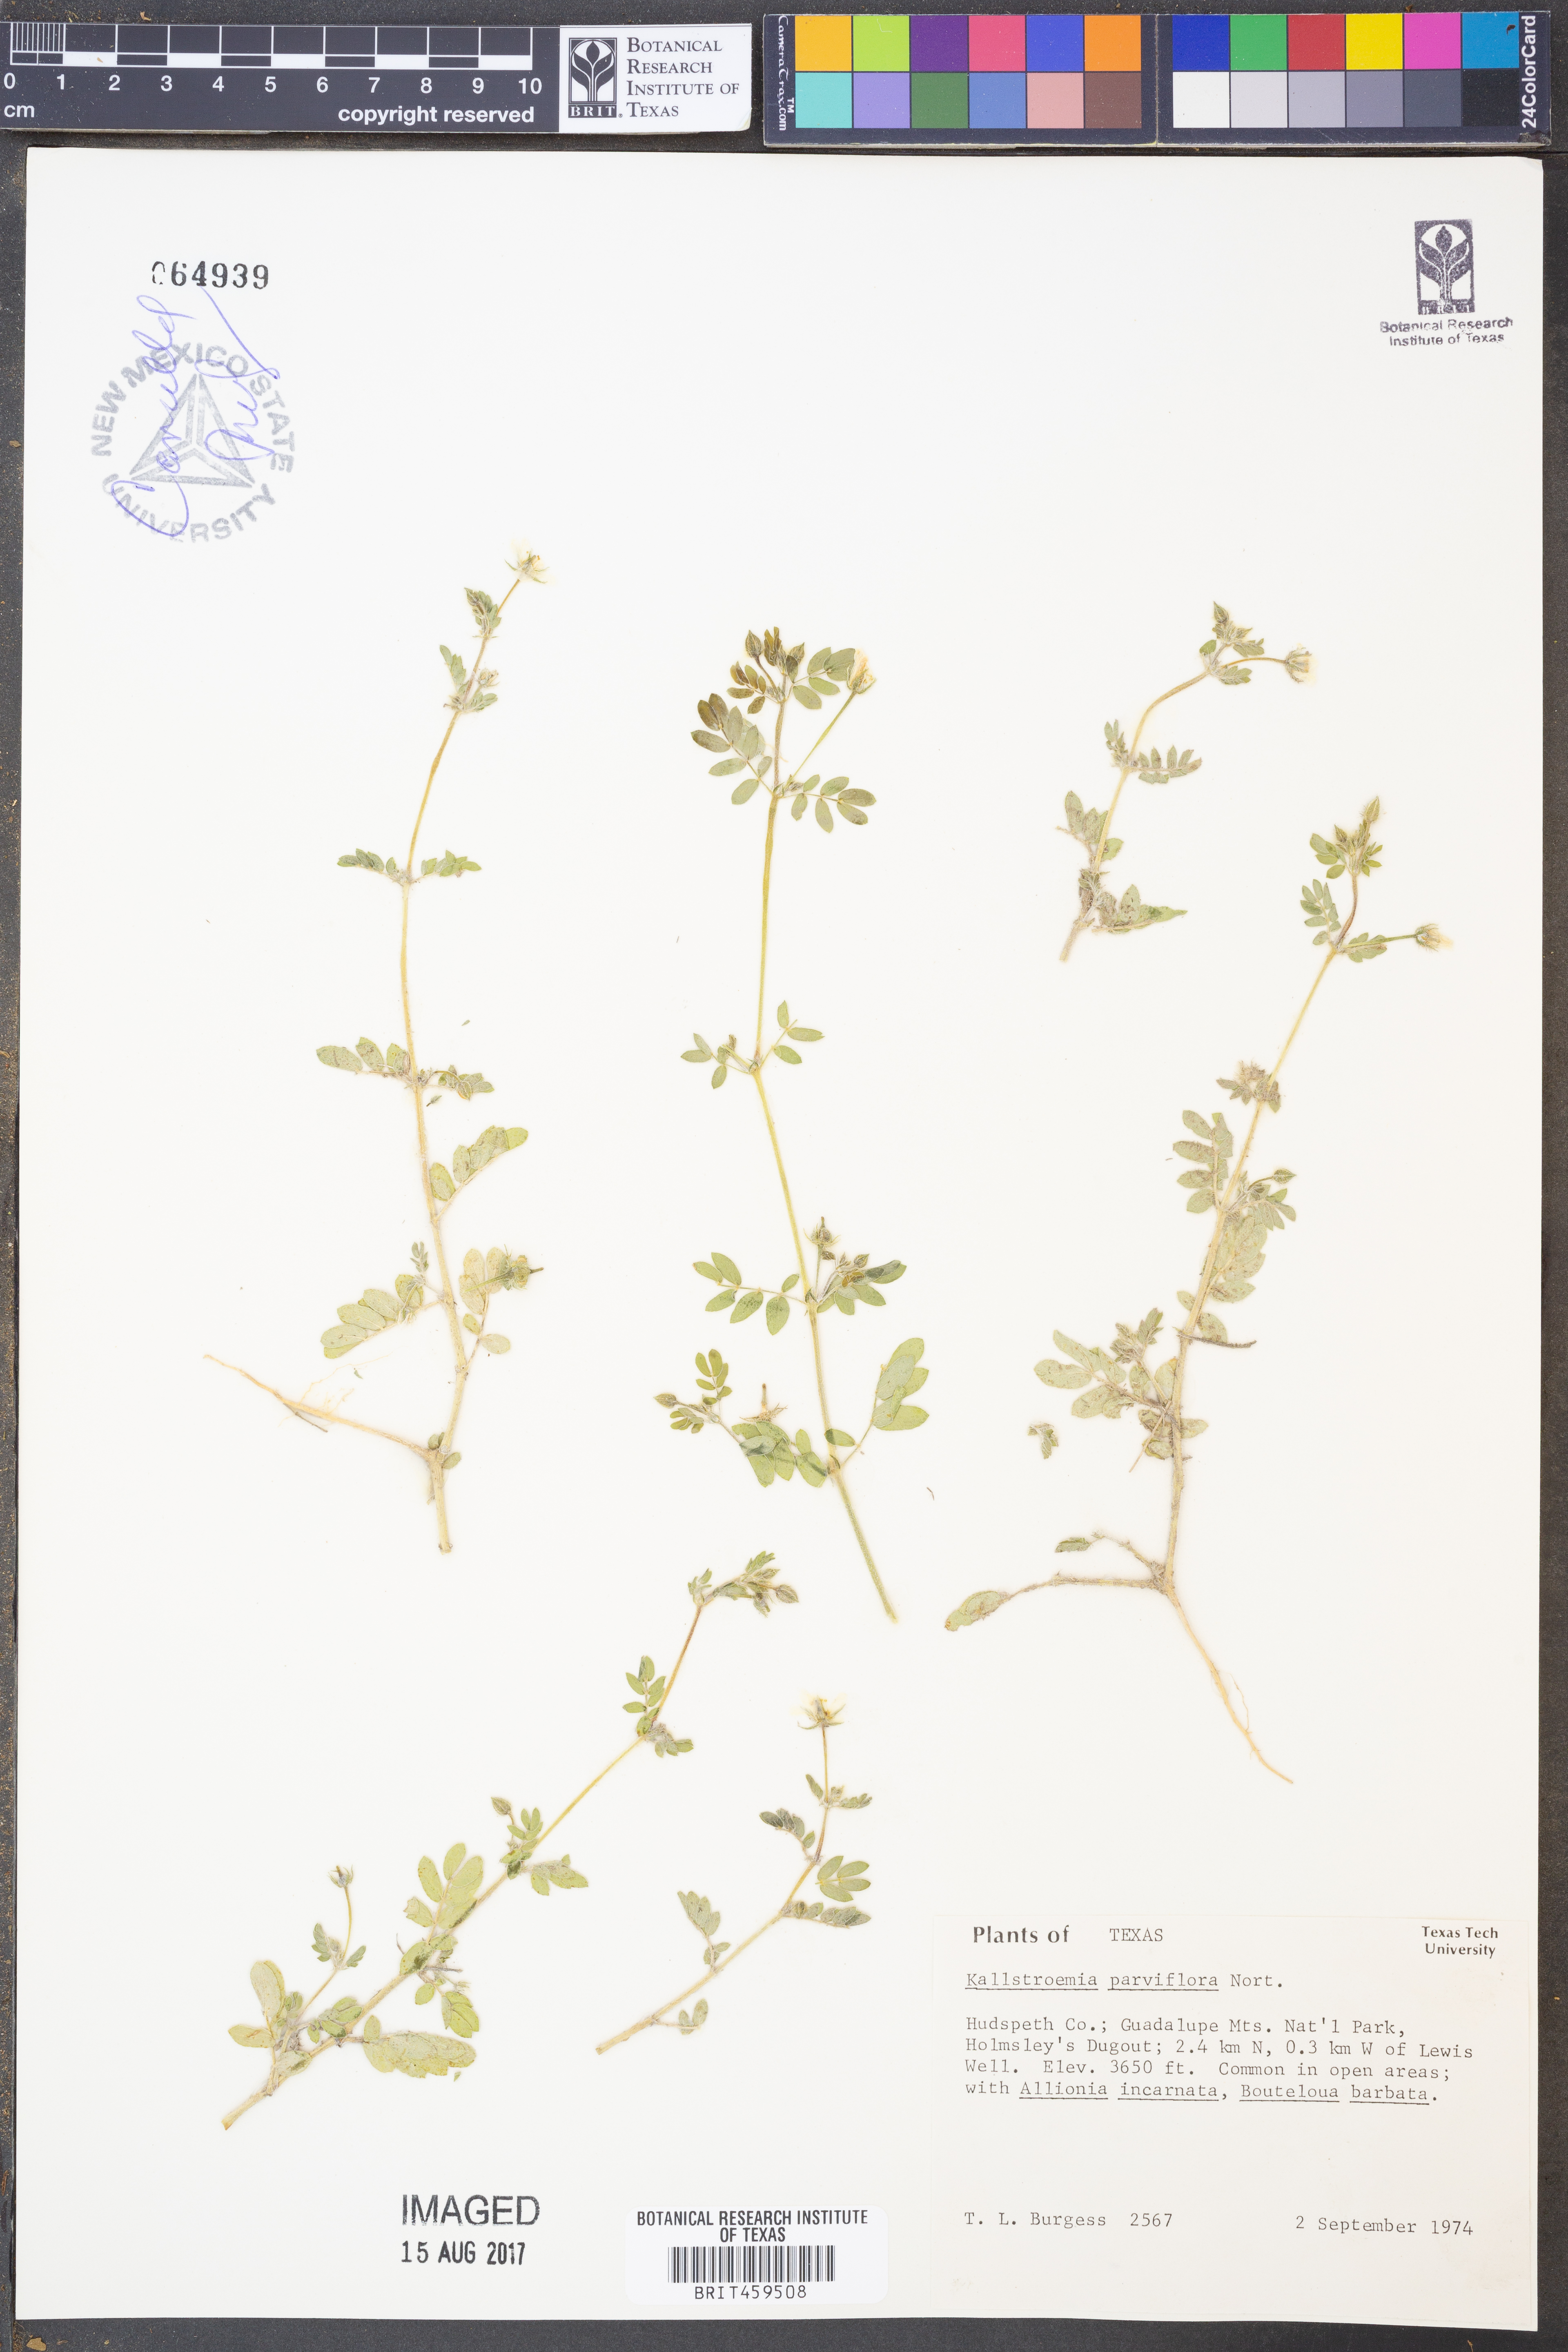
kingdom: Plantae
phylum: Tracheophyta
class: Magnoliopsida
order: Zygophyllales
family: Zygophyllaceae
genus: Kallstroemia
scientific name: Kallstroemia parviflora
